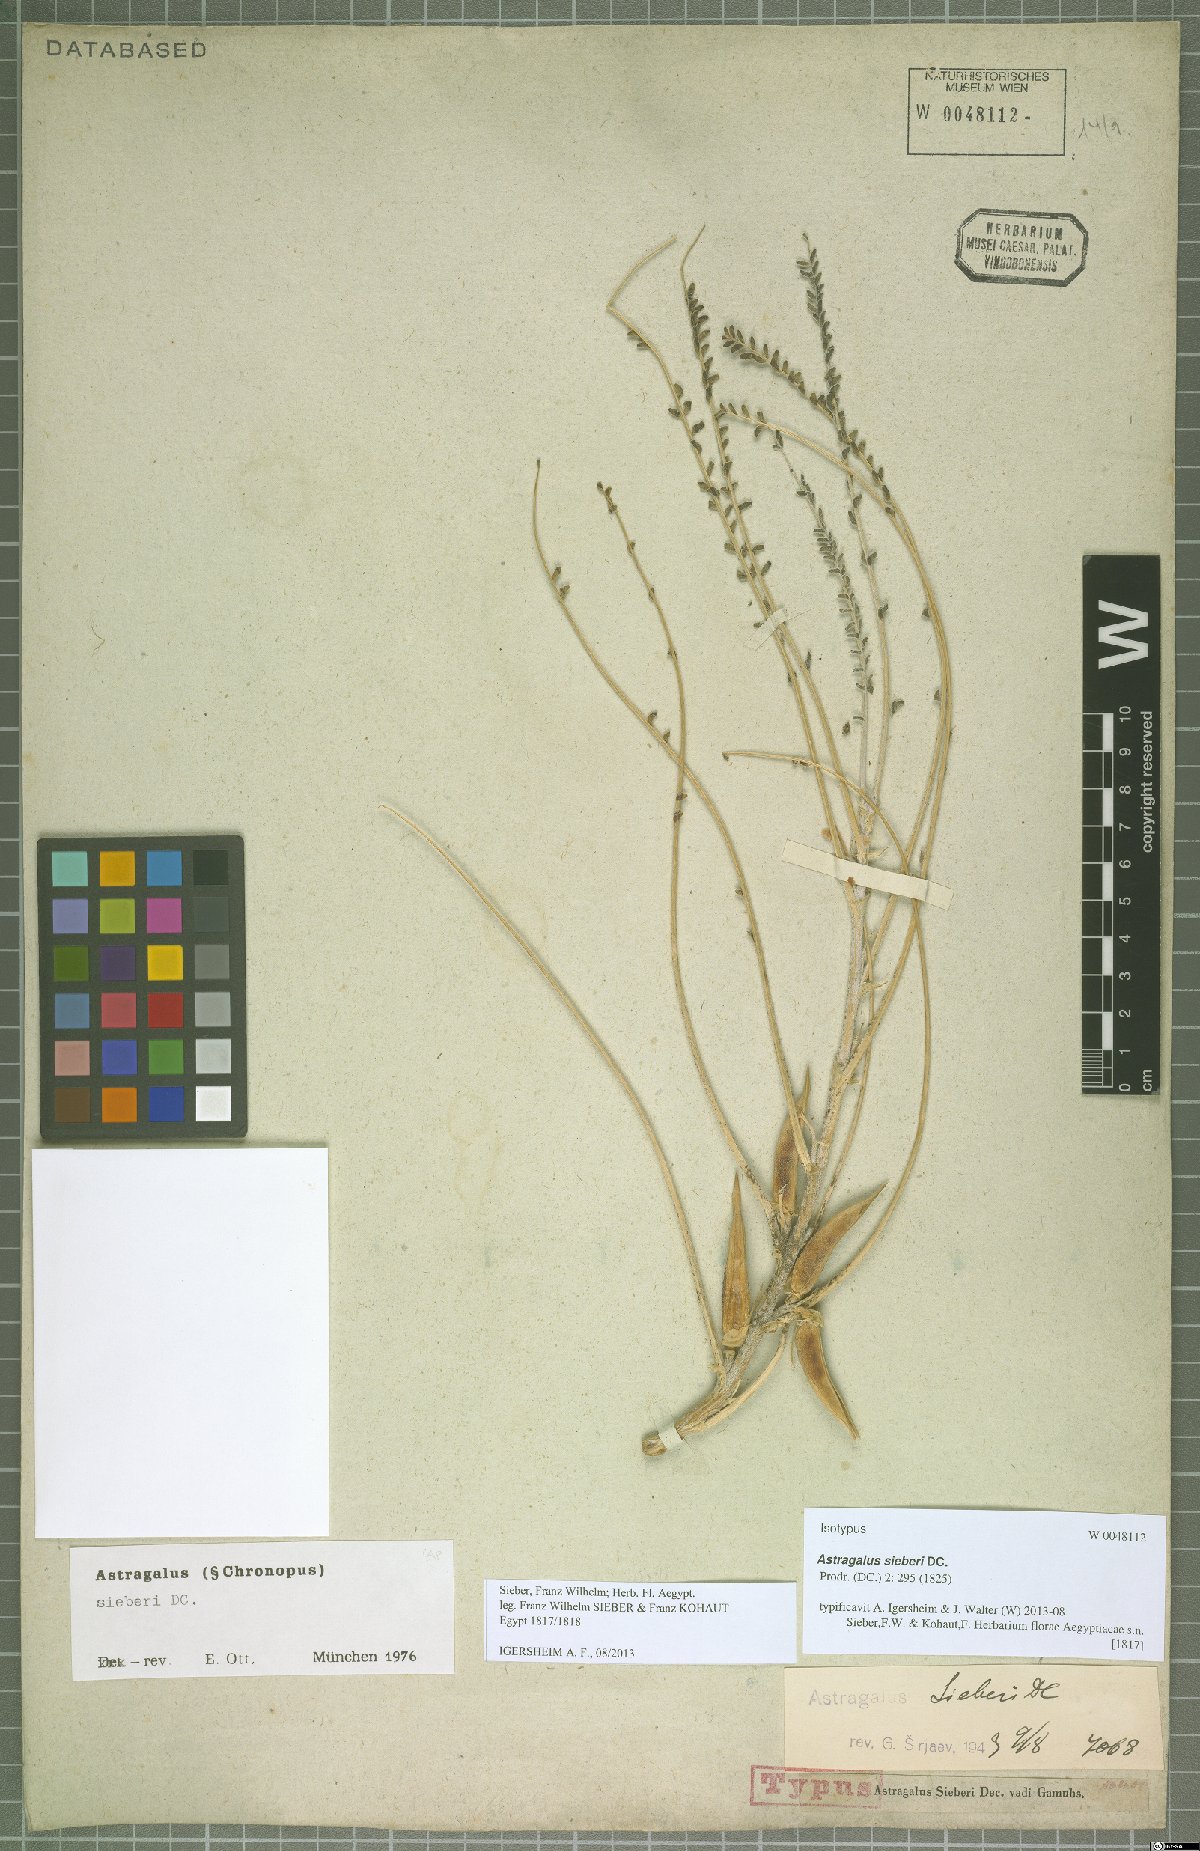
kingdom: Plantae
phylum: Tracheophyta
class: Magnoliopsida
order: Fabales
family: Fabaceae
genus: Astragalus
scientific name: Astragalus sieberi
